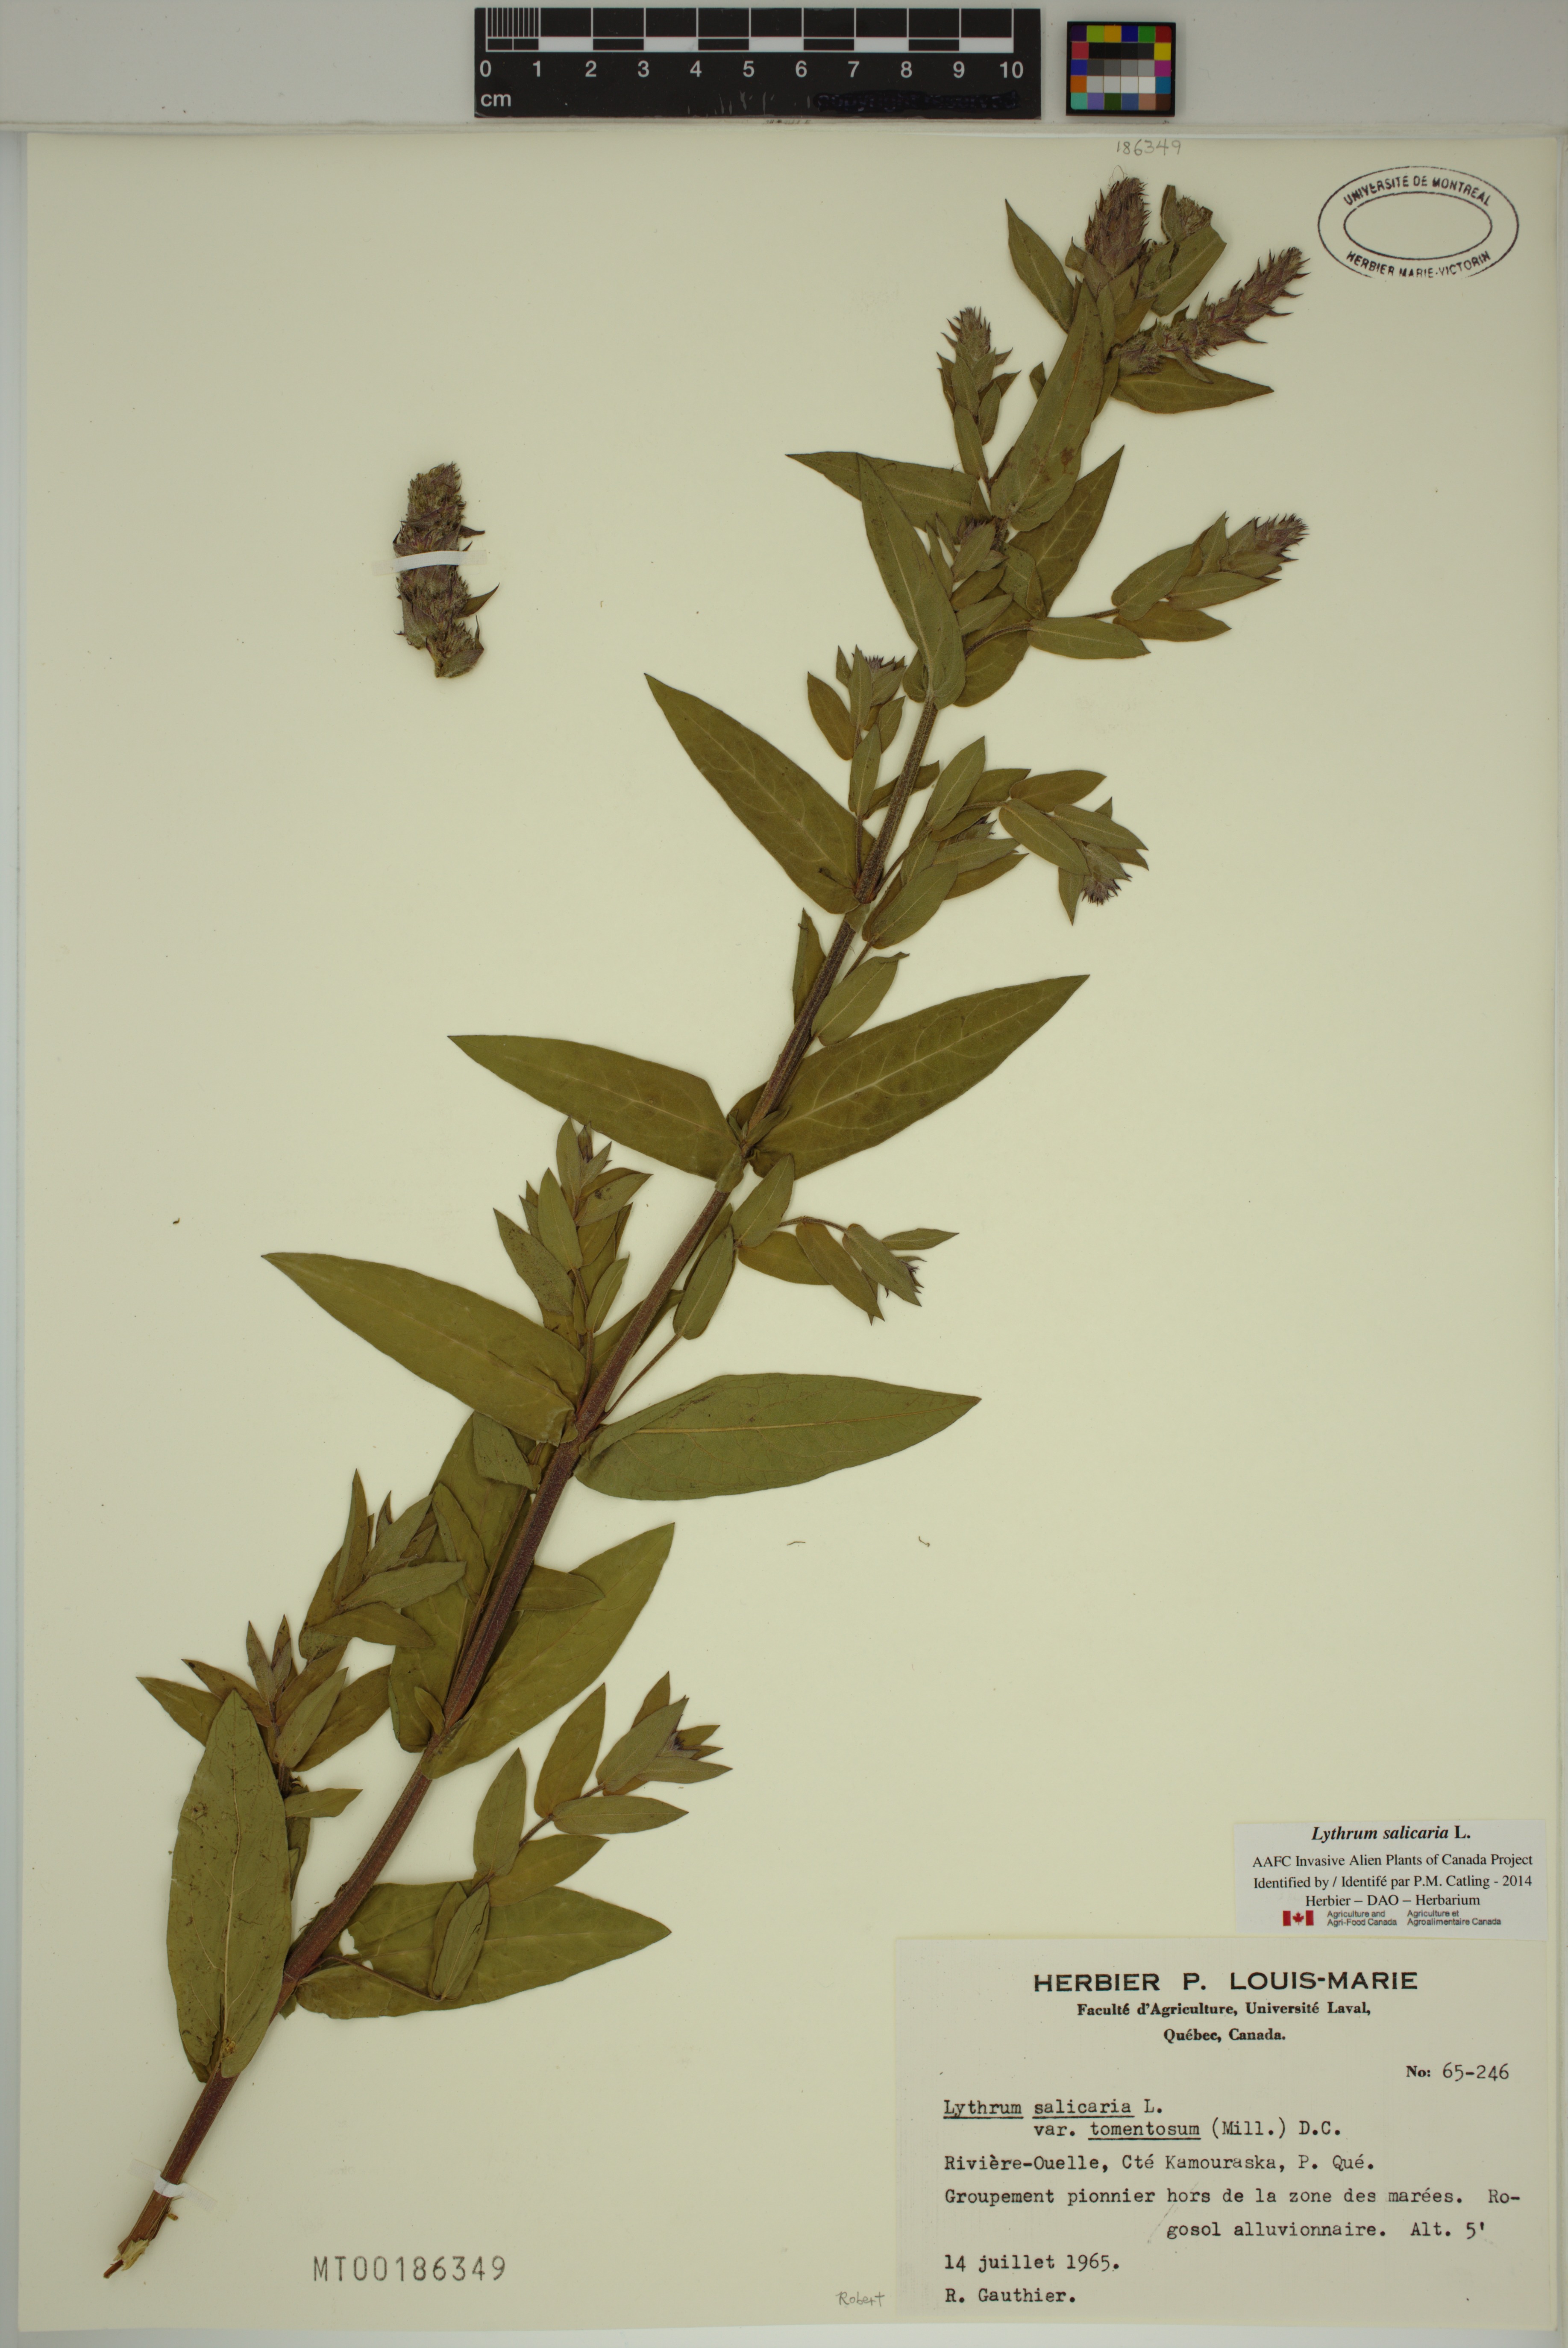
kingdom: Plantae
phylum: Tracheophyta
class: Magnoliopsida
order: Myrtales
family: Lythraceae
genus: Lythrum
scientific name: Lythrum salicaria
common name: Purple loosestrife
